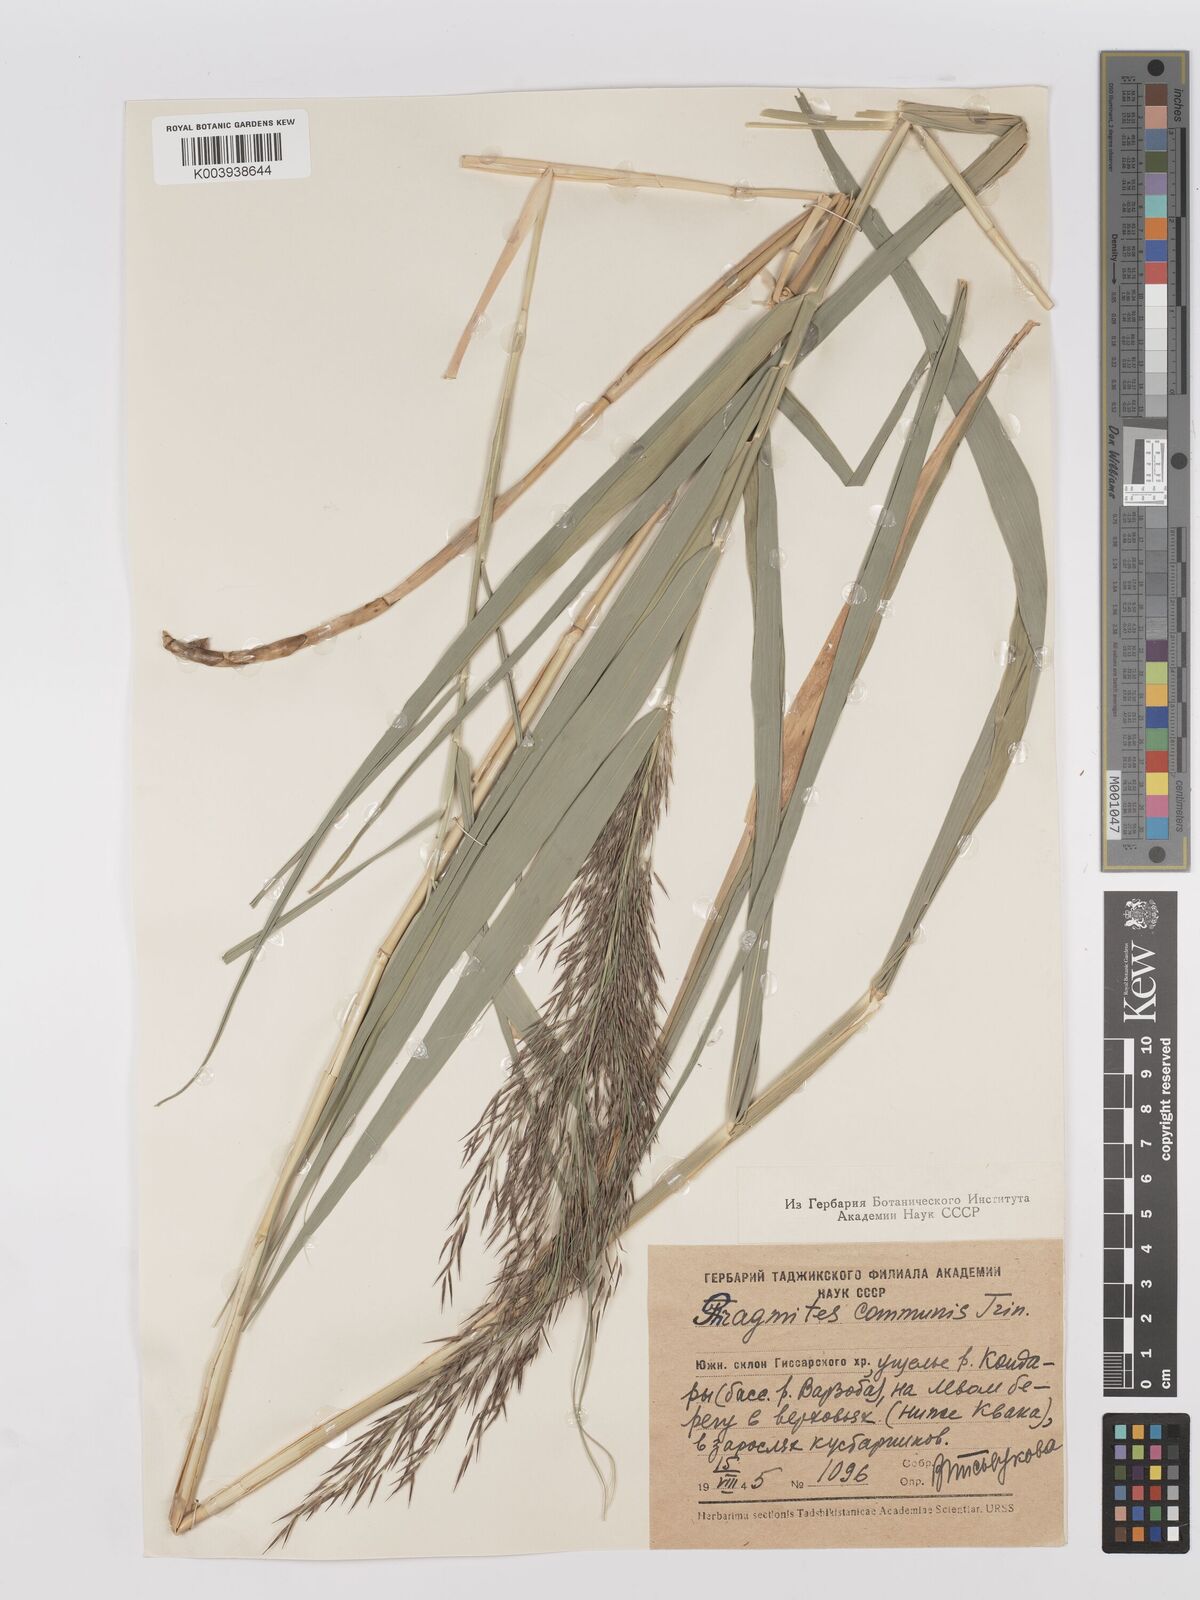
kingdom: Plantae
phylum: Tracheophyta
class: Liliopsida
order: Poales
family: Poaceae
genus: Phragmites
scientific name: Phragmites australis
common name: Common reed
